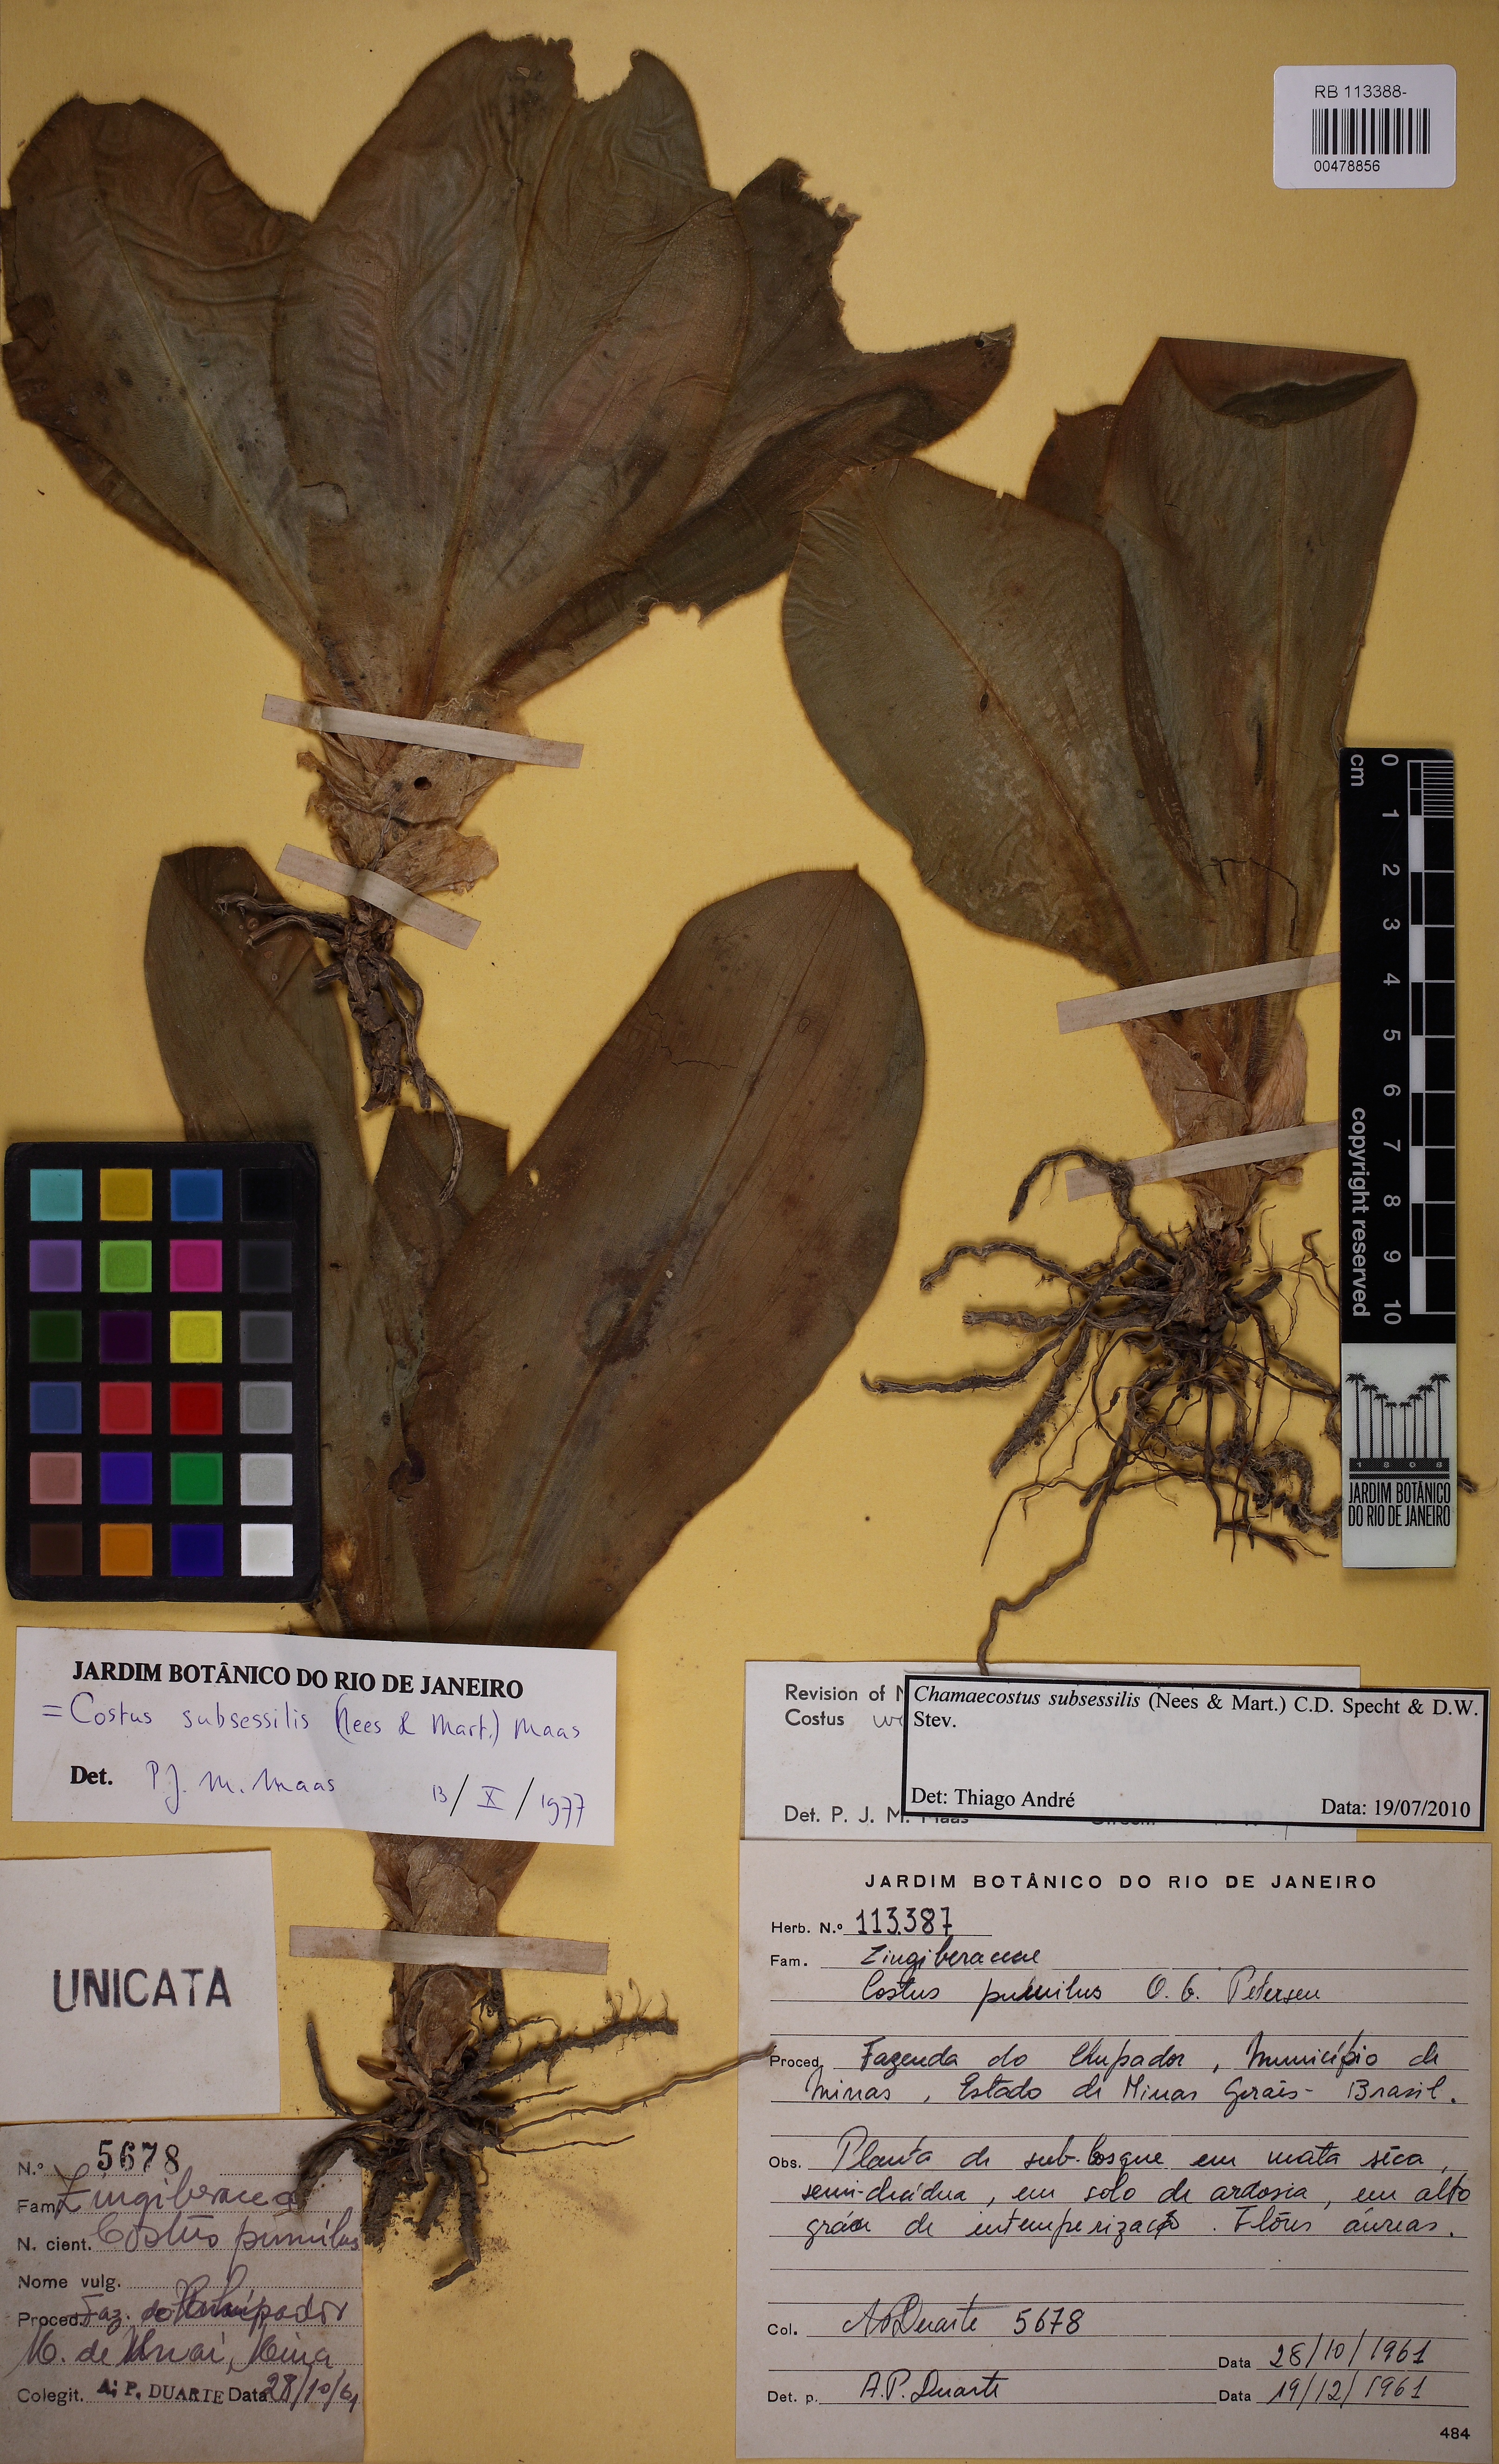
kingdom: Plantae
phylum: Tracheophyta
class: Liliopsida
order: Zingiberales
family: Costaceae
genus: Chamaecostus
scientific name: Chamaecostus subsessilis
